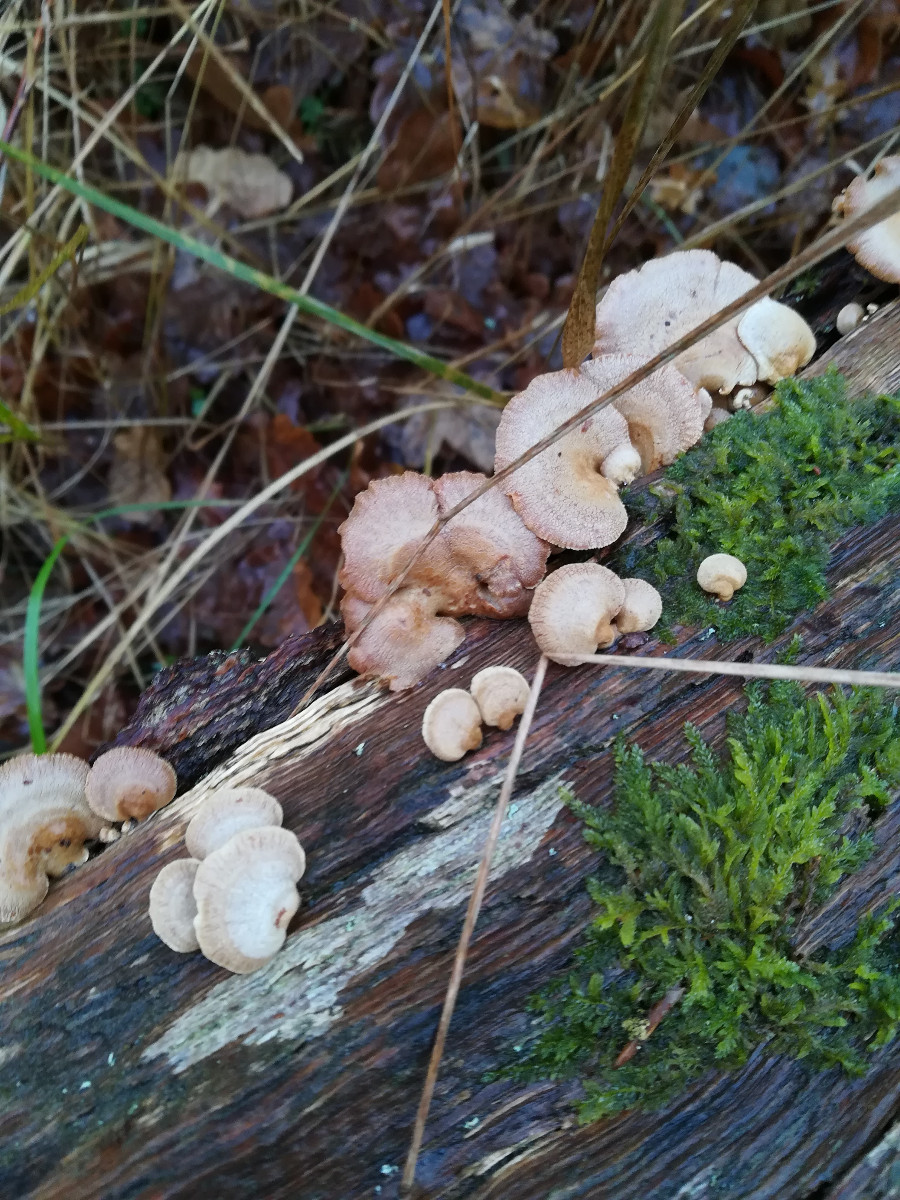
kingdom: Fungi
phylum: Basidiomycota
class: Agaricomycetes
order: Agaricales
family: Mycenaceae
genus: Panellus
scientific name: Panellus stipticus
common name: kliddet epaulethat
